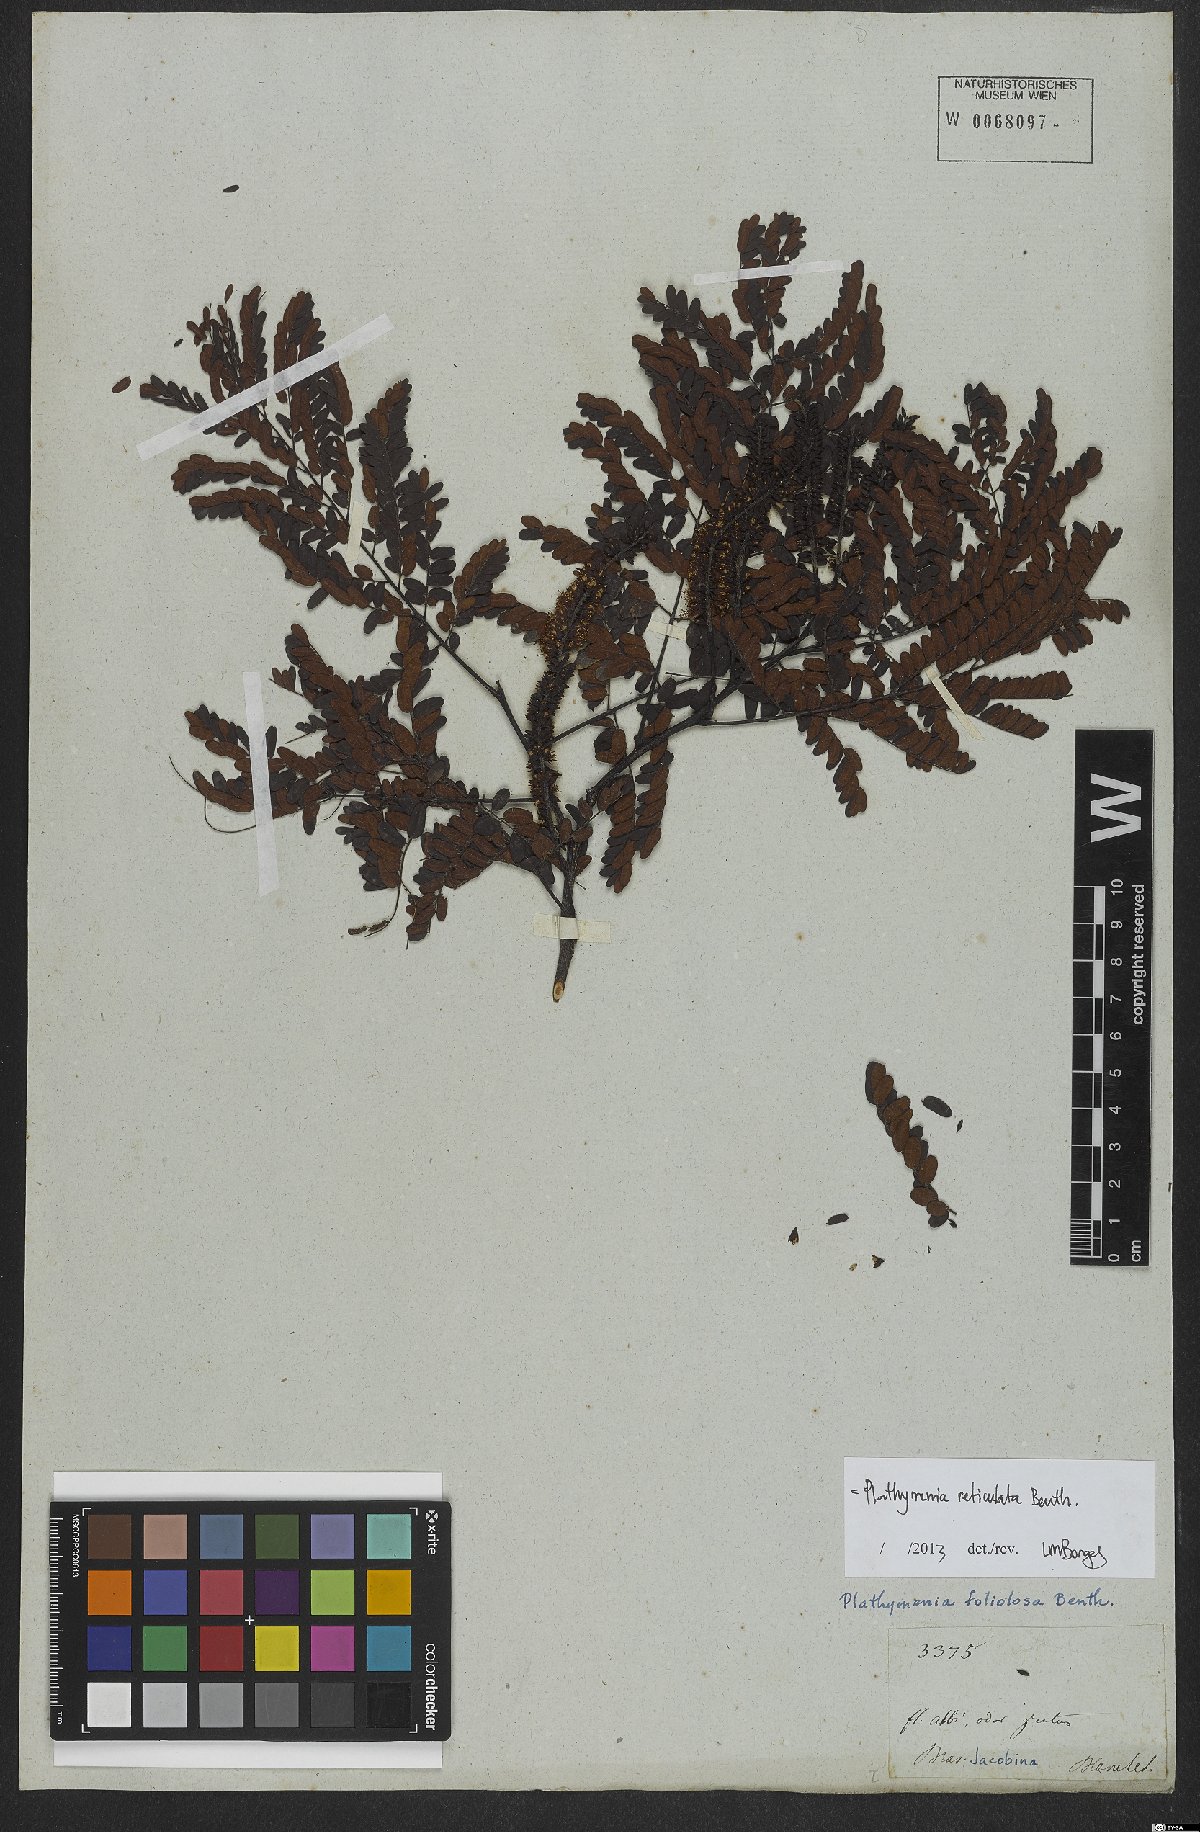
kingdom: Plantae
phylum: Tracheophyta
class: Magnoliopsida
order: Fabales
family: Fabaceae
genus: Plathymenia
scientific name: Plathymenia reticulata
